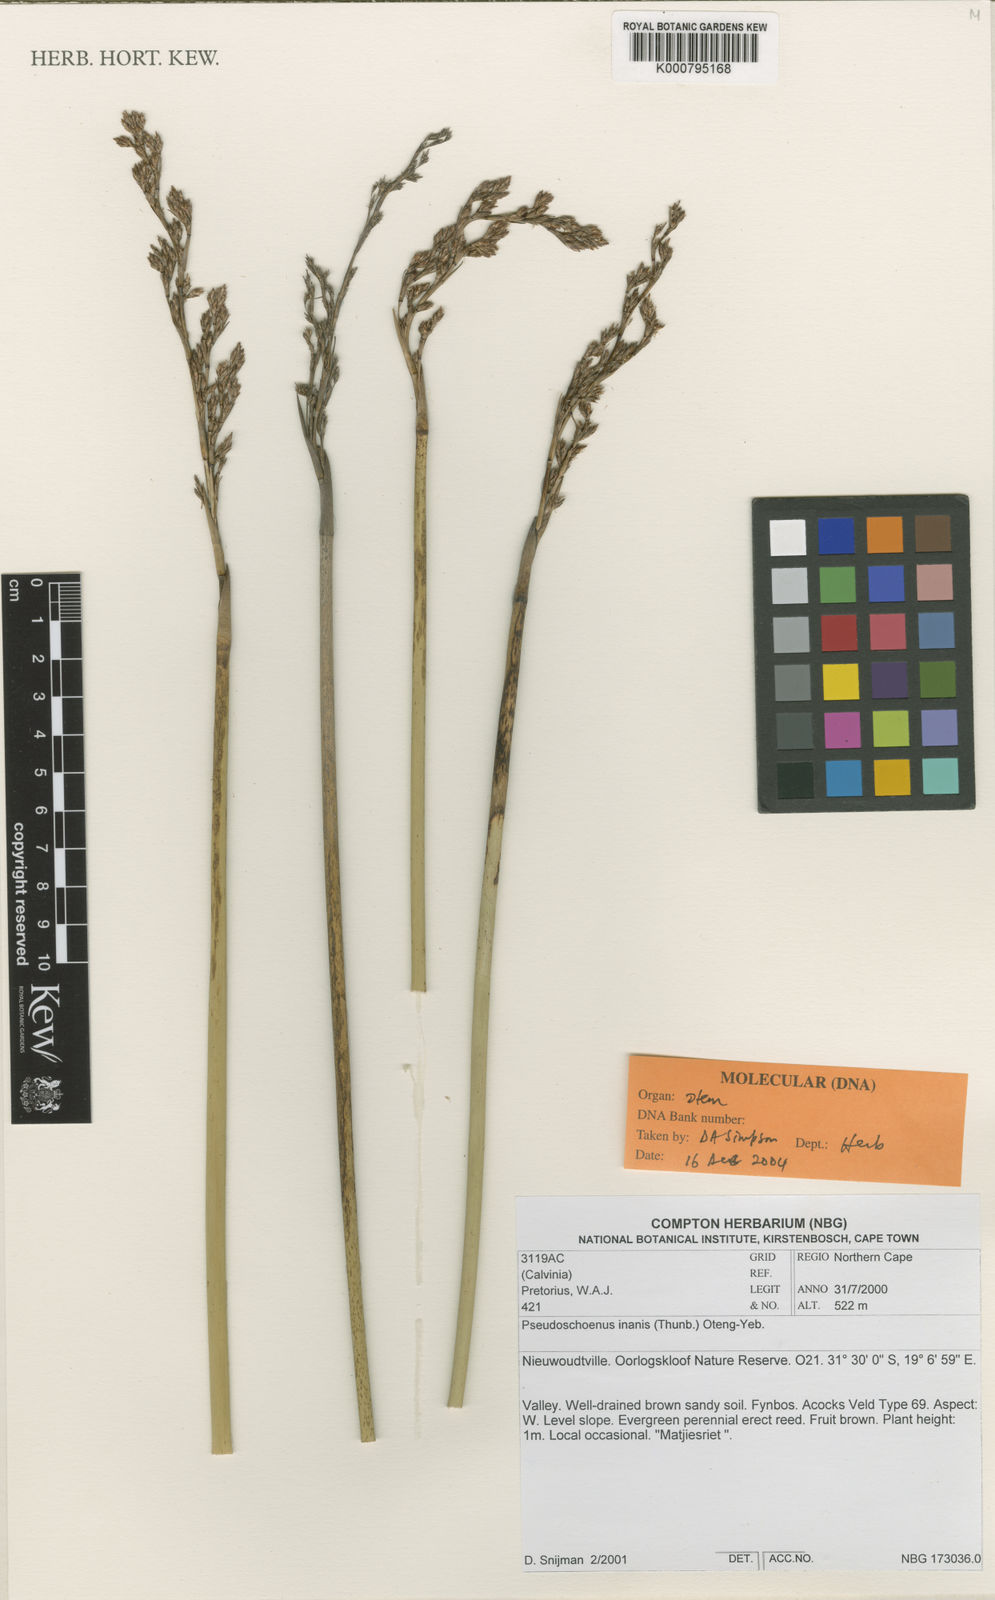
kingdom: Plantae
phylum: Tracheophyta
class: Liliopsida
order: Poales
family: Cyperaceae
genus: Pseudoschoenus
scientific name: Pseudoschoenus inanis
